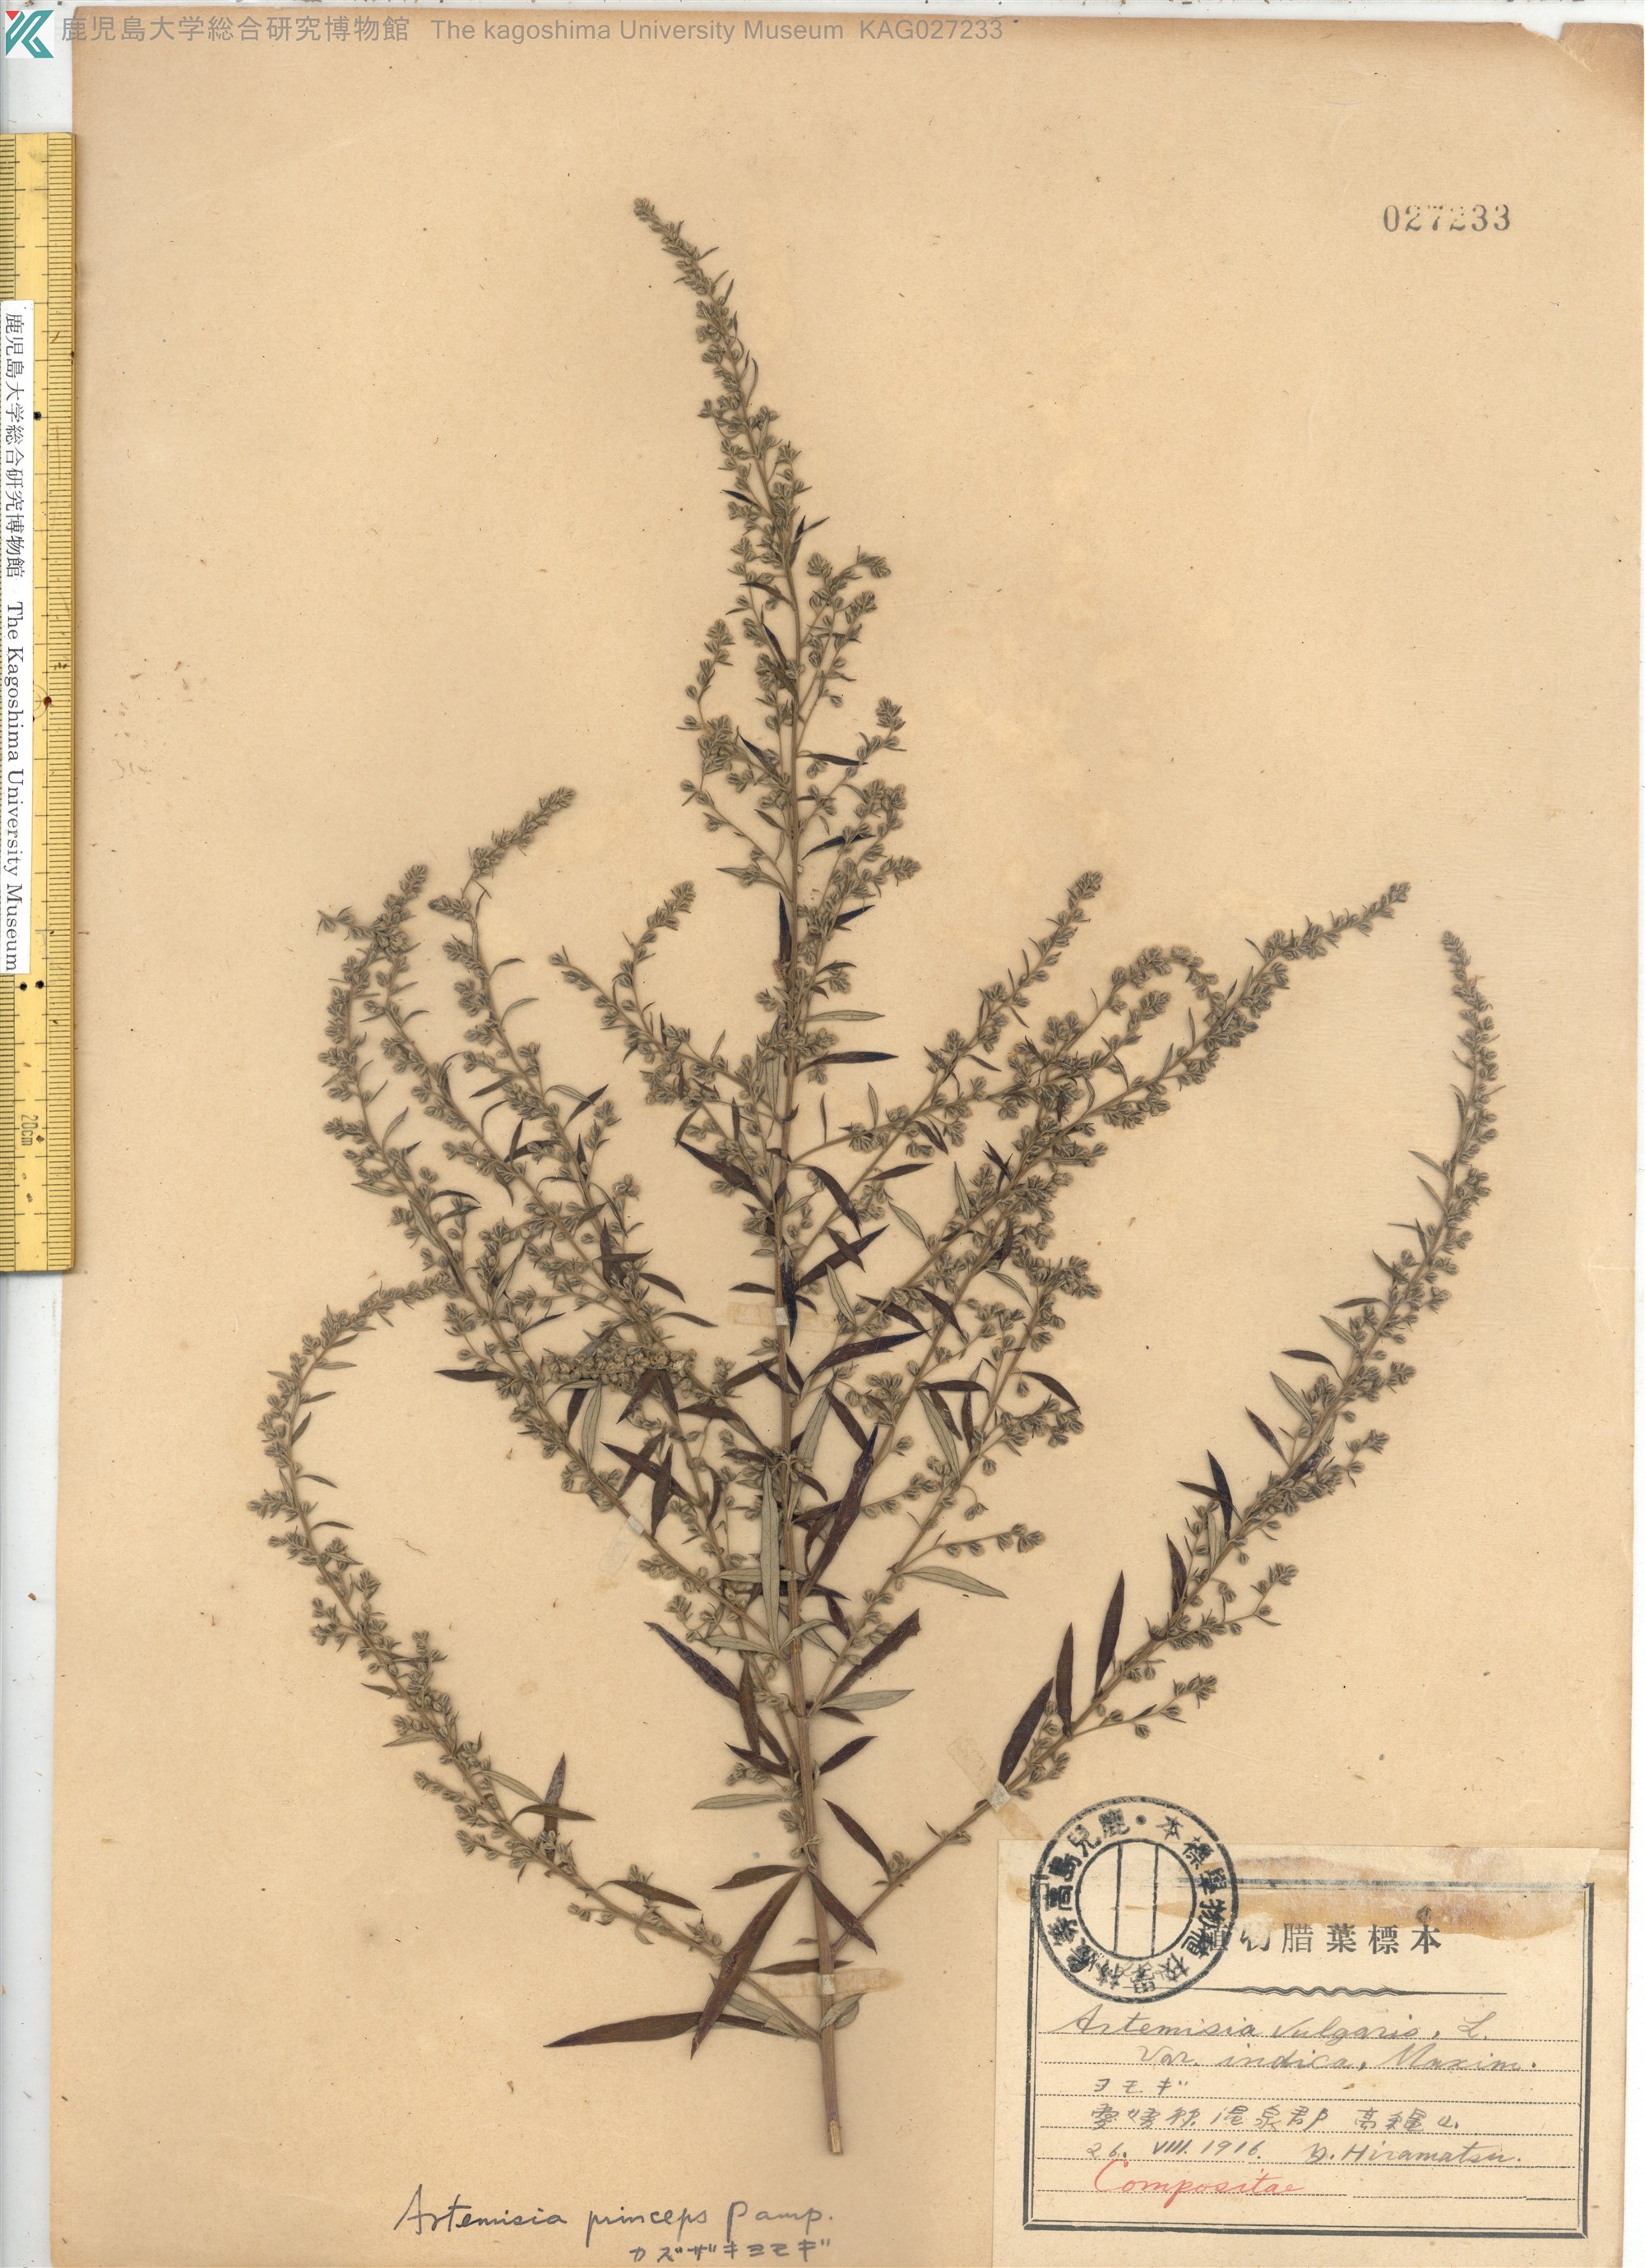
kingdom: Plantae
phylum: Tracheophyta
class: Magnoliopsida
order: Asterales
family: Asteraceae
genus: Artemisia
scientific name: Artemisia princeps
